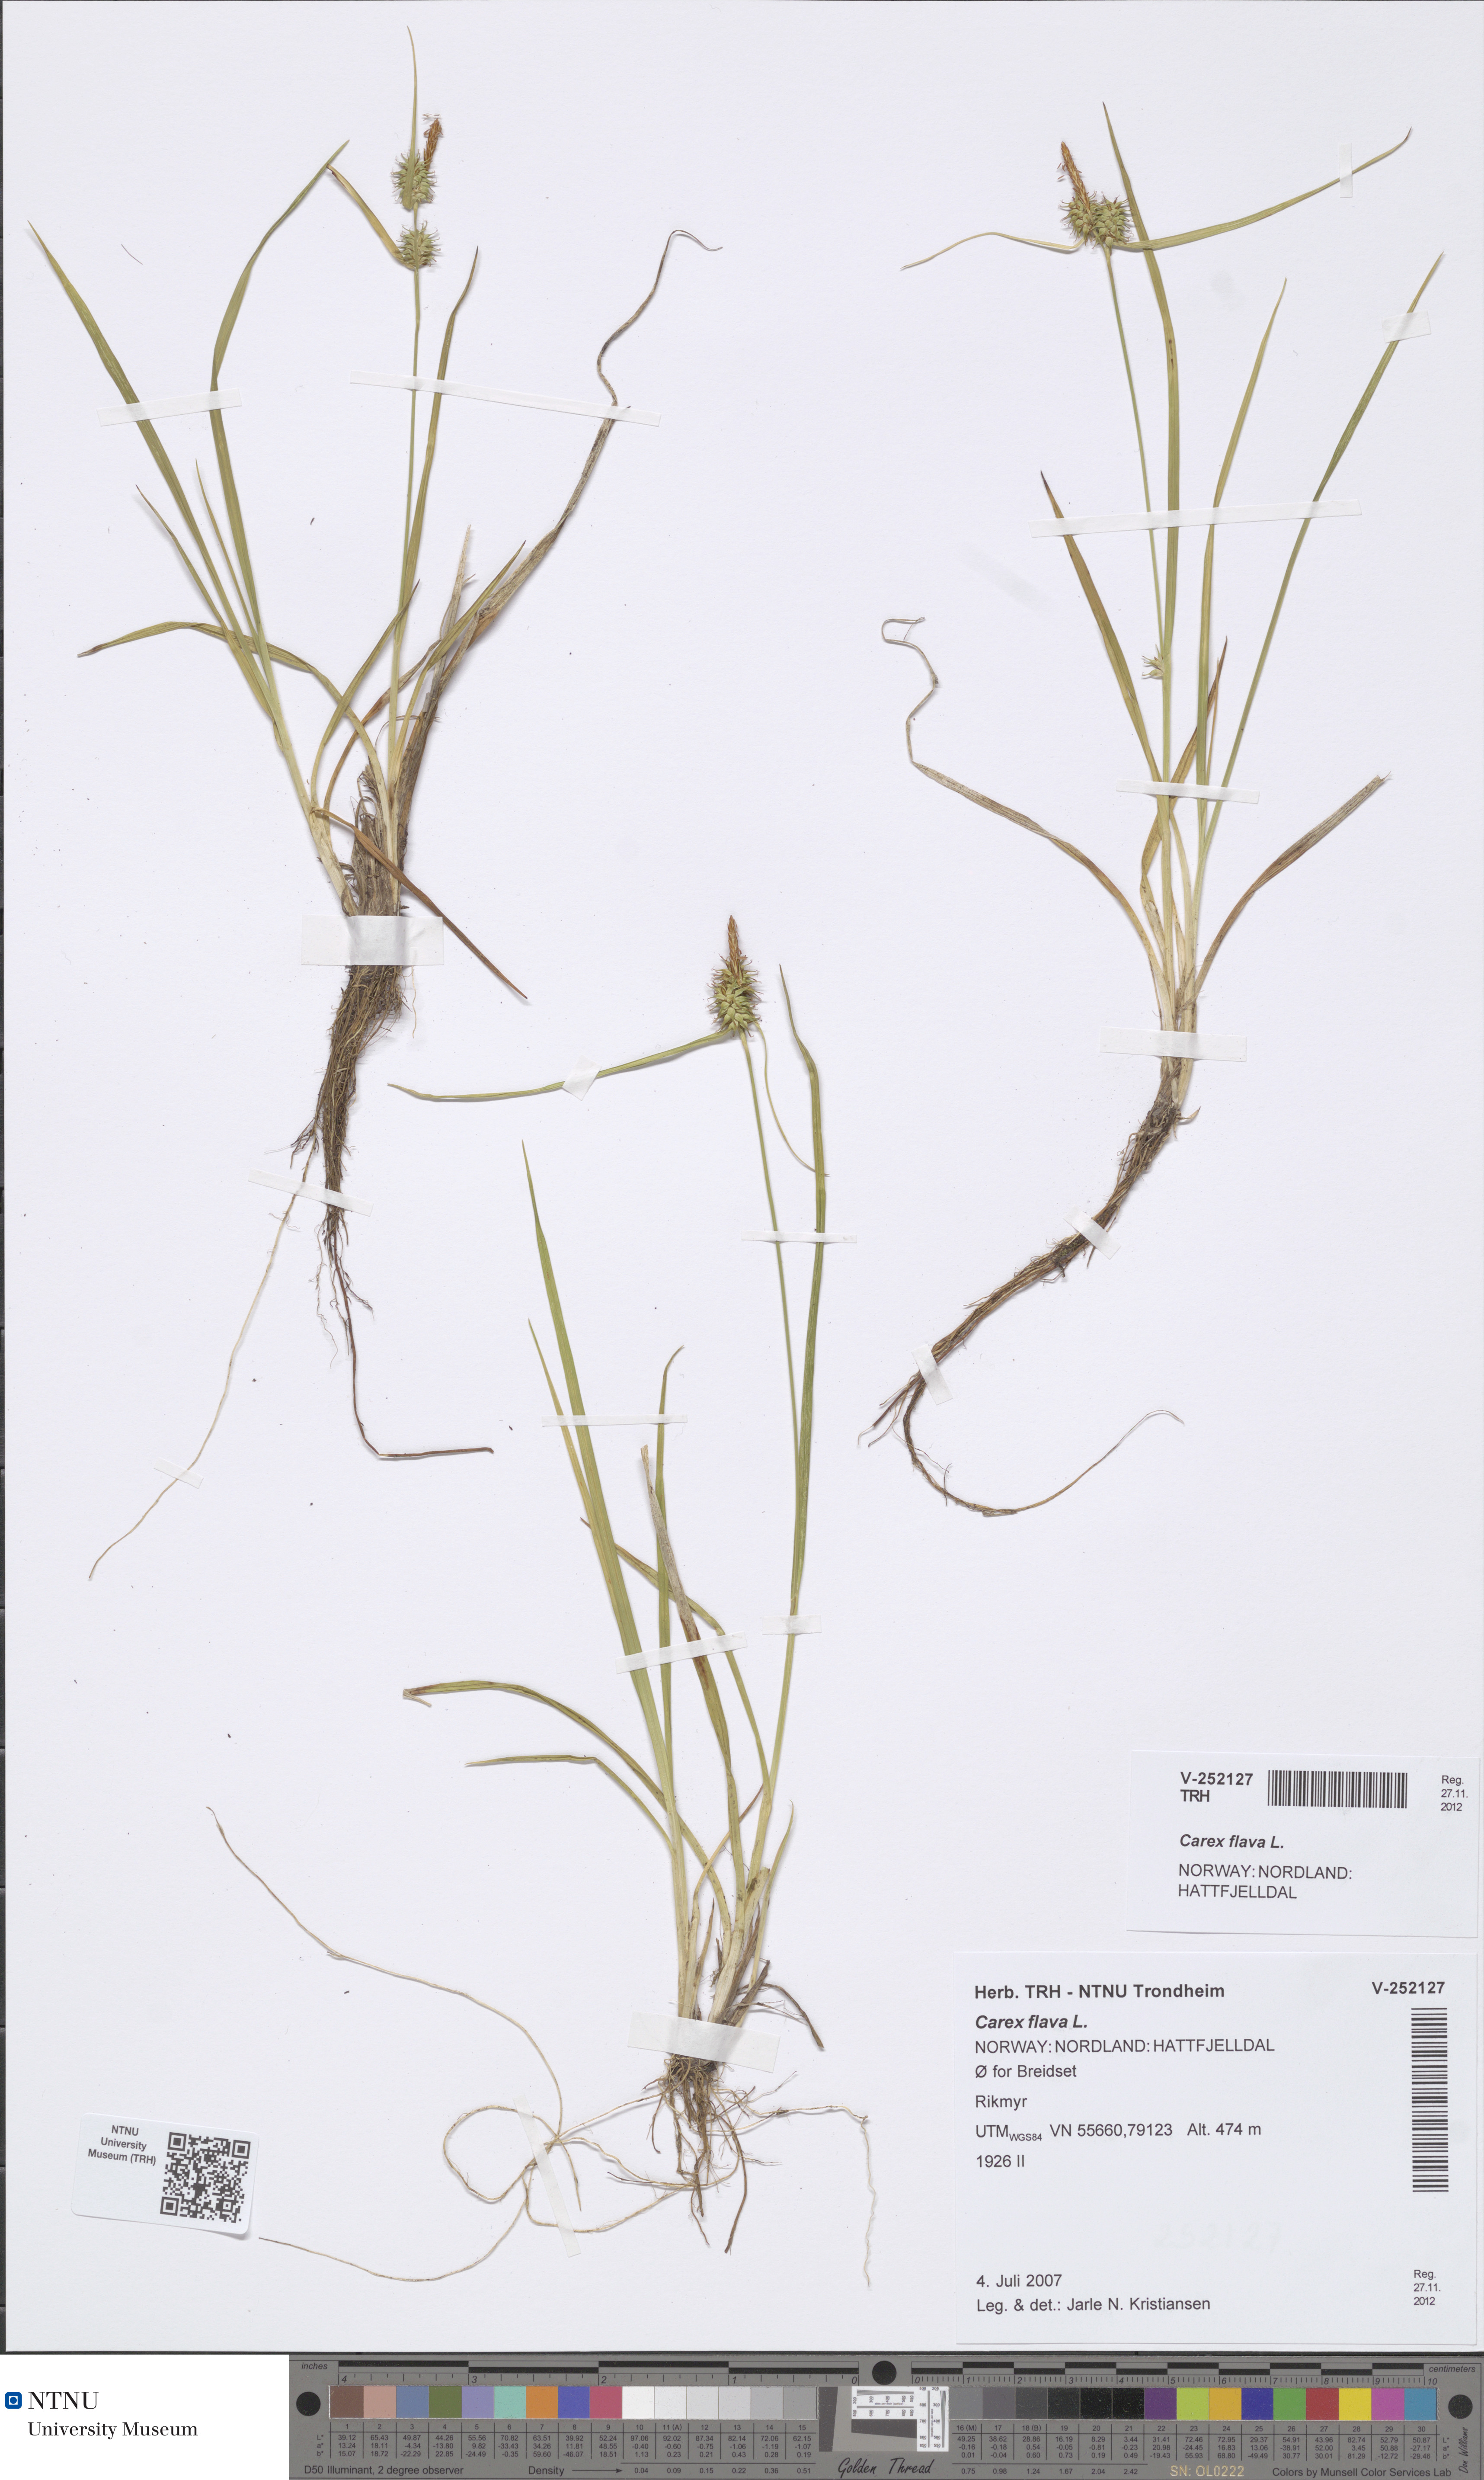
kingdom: Plantae
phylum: Tracheophyta
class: Liliopsida
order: Poales
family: Cyperaceae
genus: Carex
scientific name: Carex flava
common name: Large yellow-sedge
